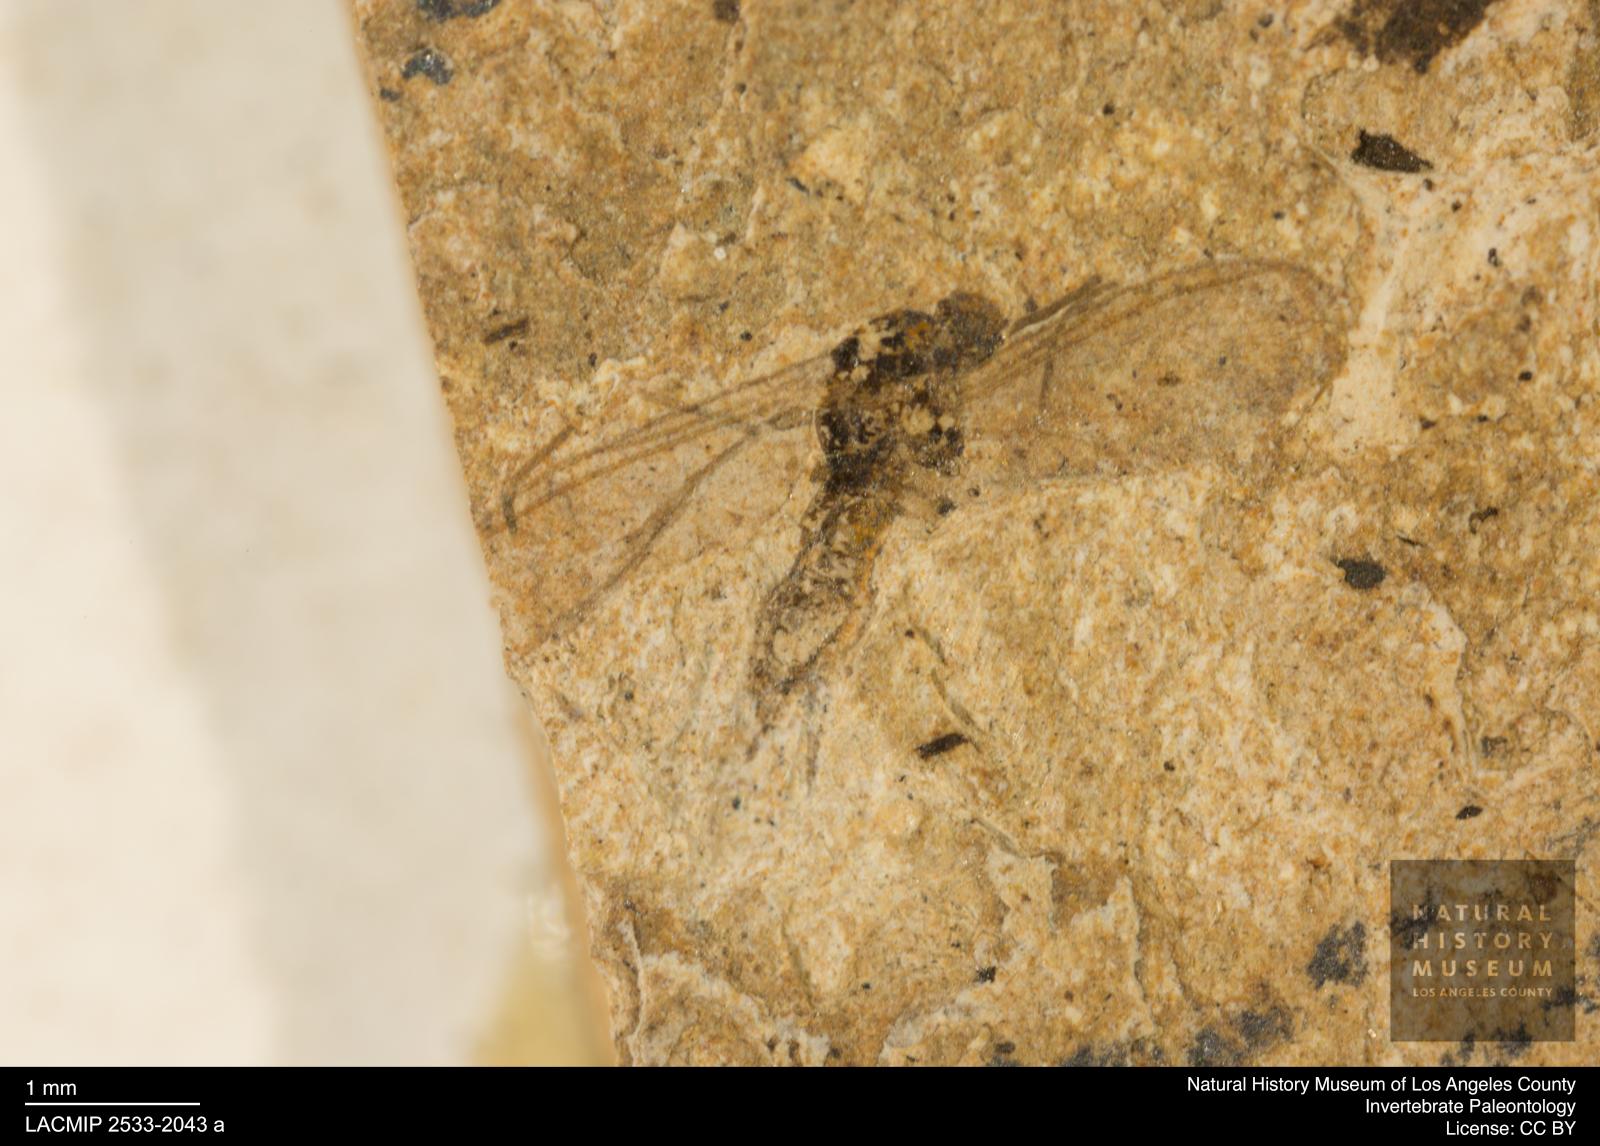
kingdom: Animalia
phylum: Arthropoda
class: Insecta
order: Diptera
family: Sciaridae
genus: Sciara
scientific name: Sciara winnertzii
